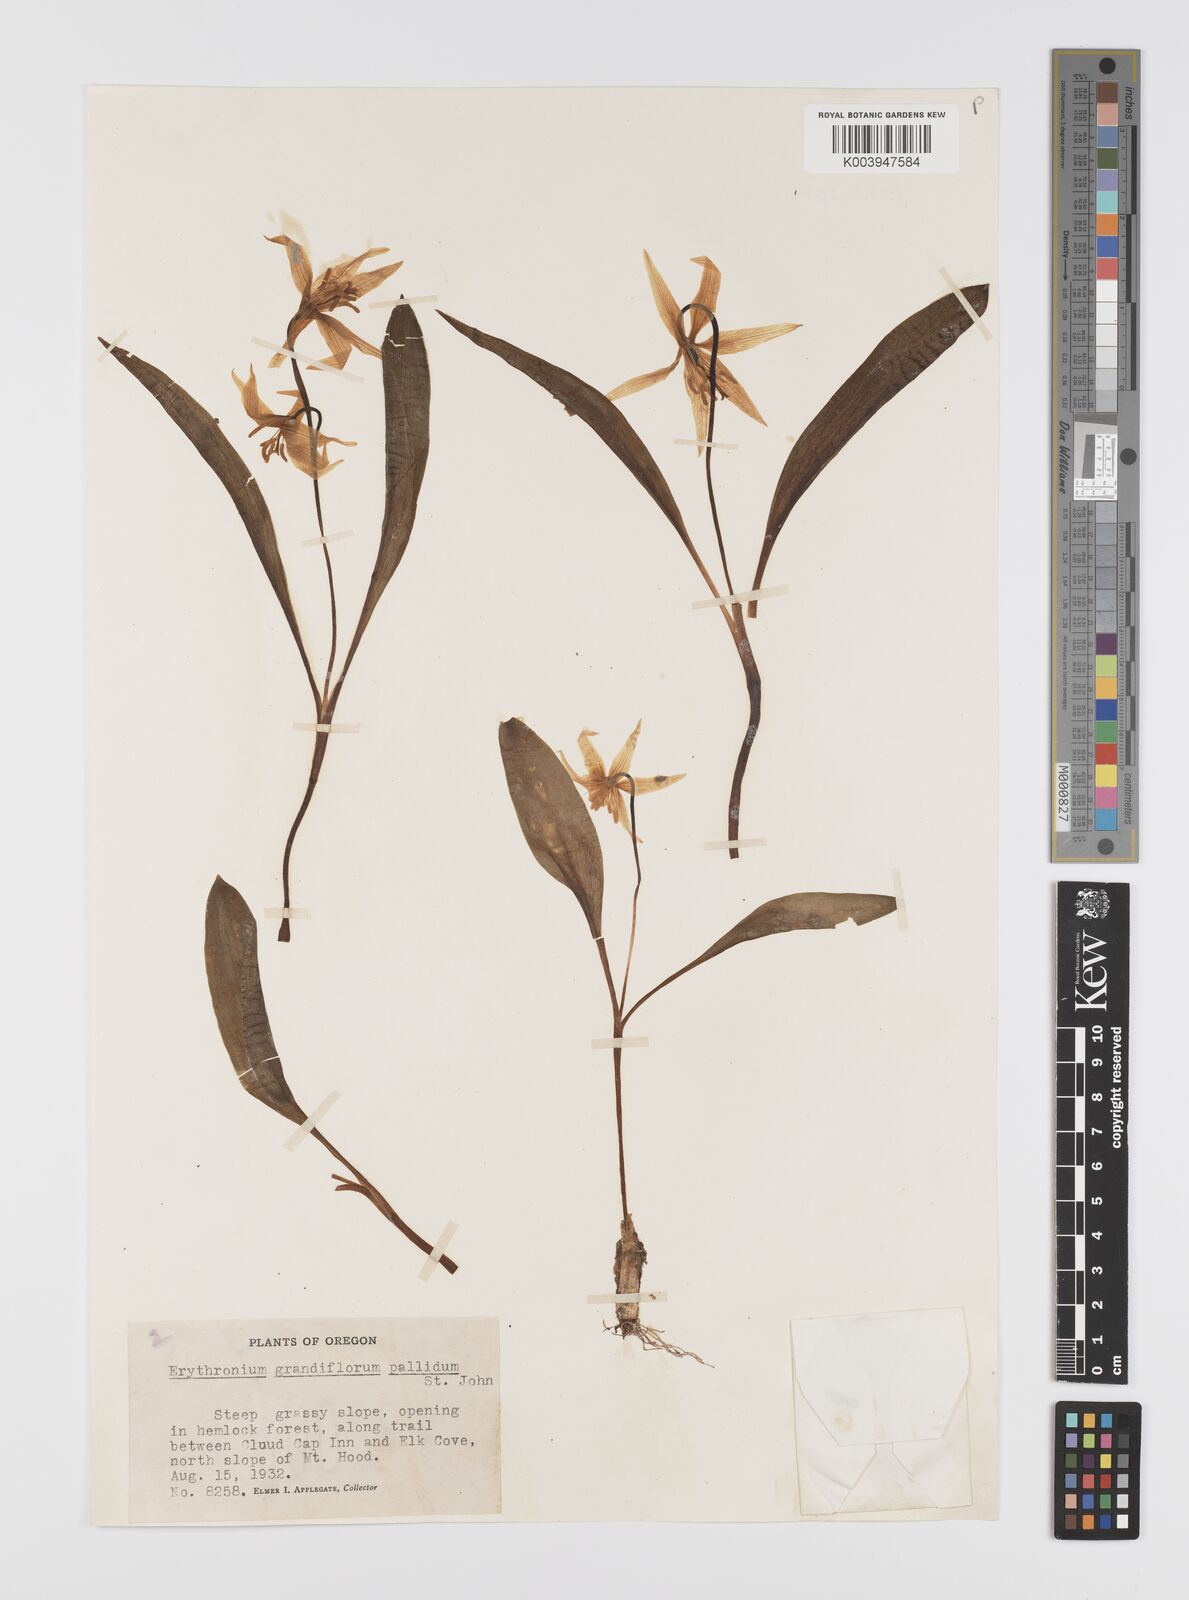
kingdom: Plantae
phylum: Tracheophyta
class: Liliopsida
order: Liliales
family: Liliaceae
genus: Erythronium
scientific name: Erythronium grandiflorum
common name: Avalanche-lily
